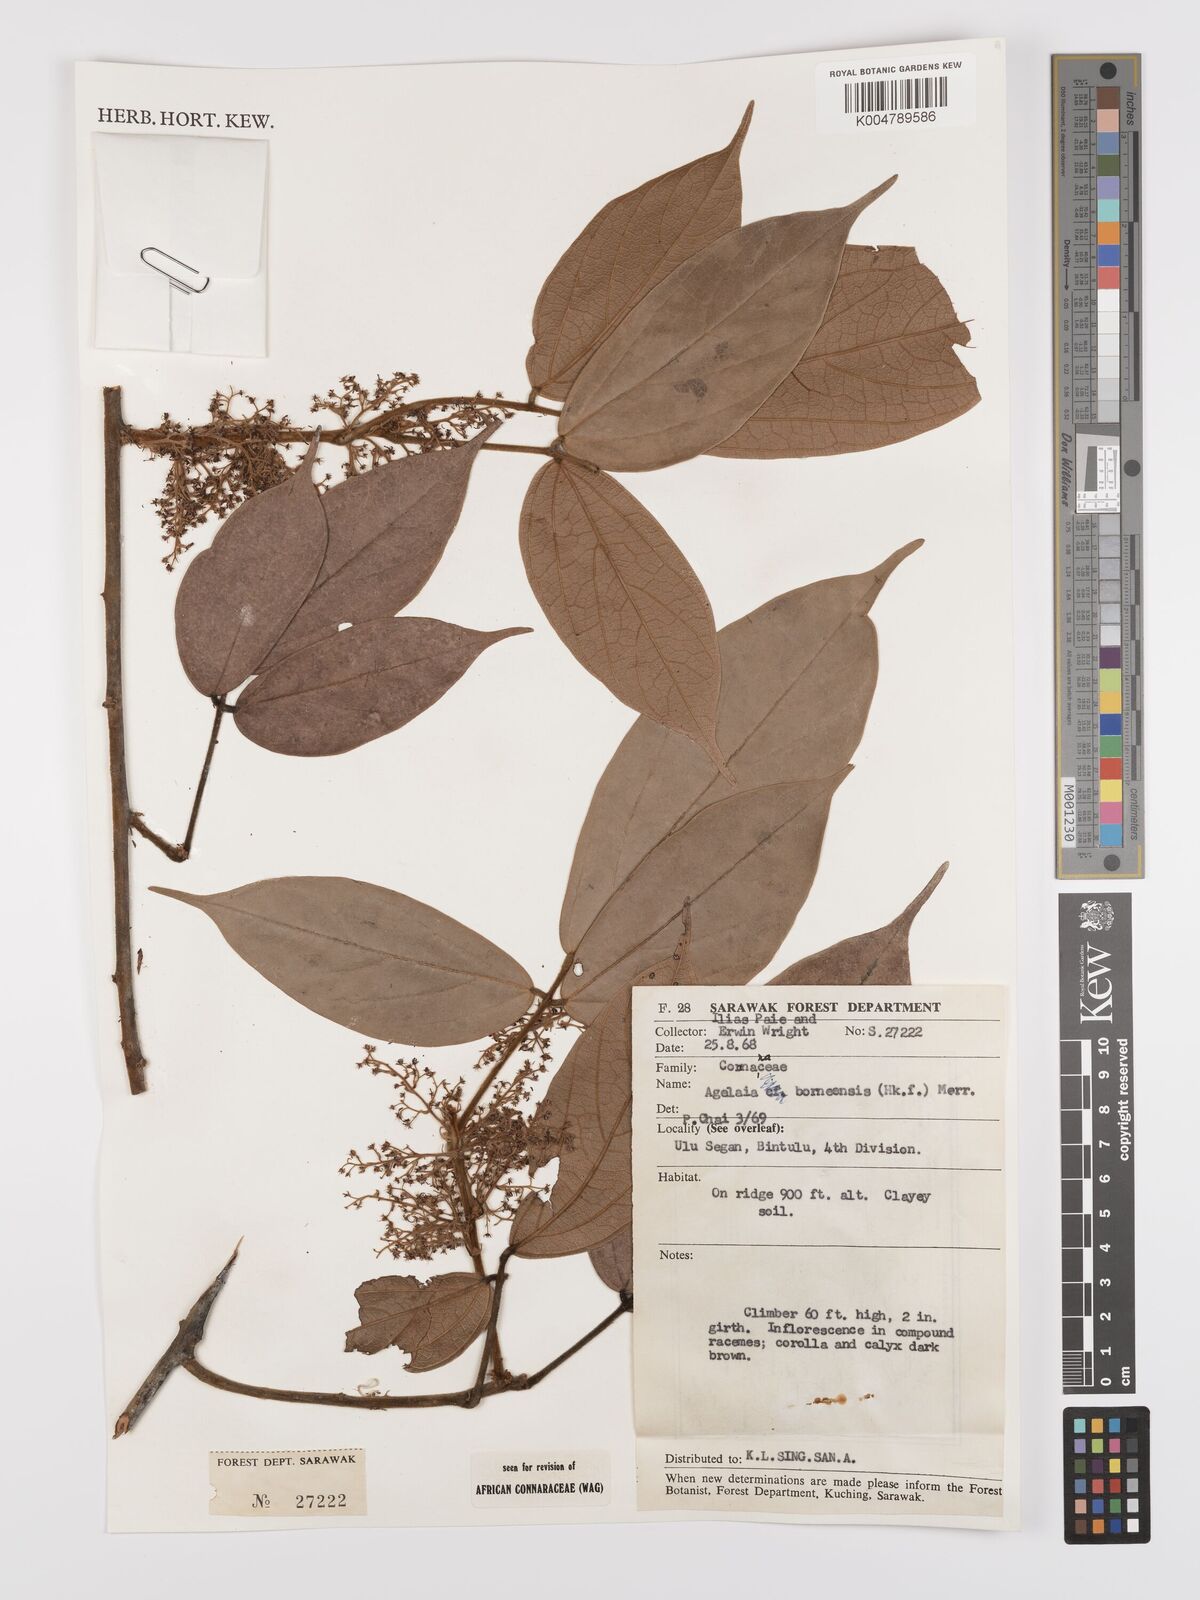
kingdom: Plantae
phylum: Tracheophyta
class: Magnoliopsida
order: Oxalidales
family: Connaraceae
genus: Agelaea
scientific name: Agelaea borneensis
